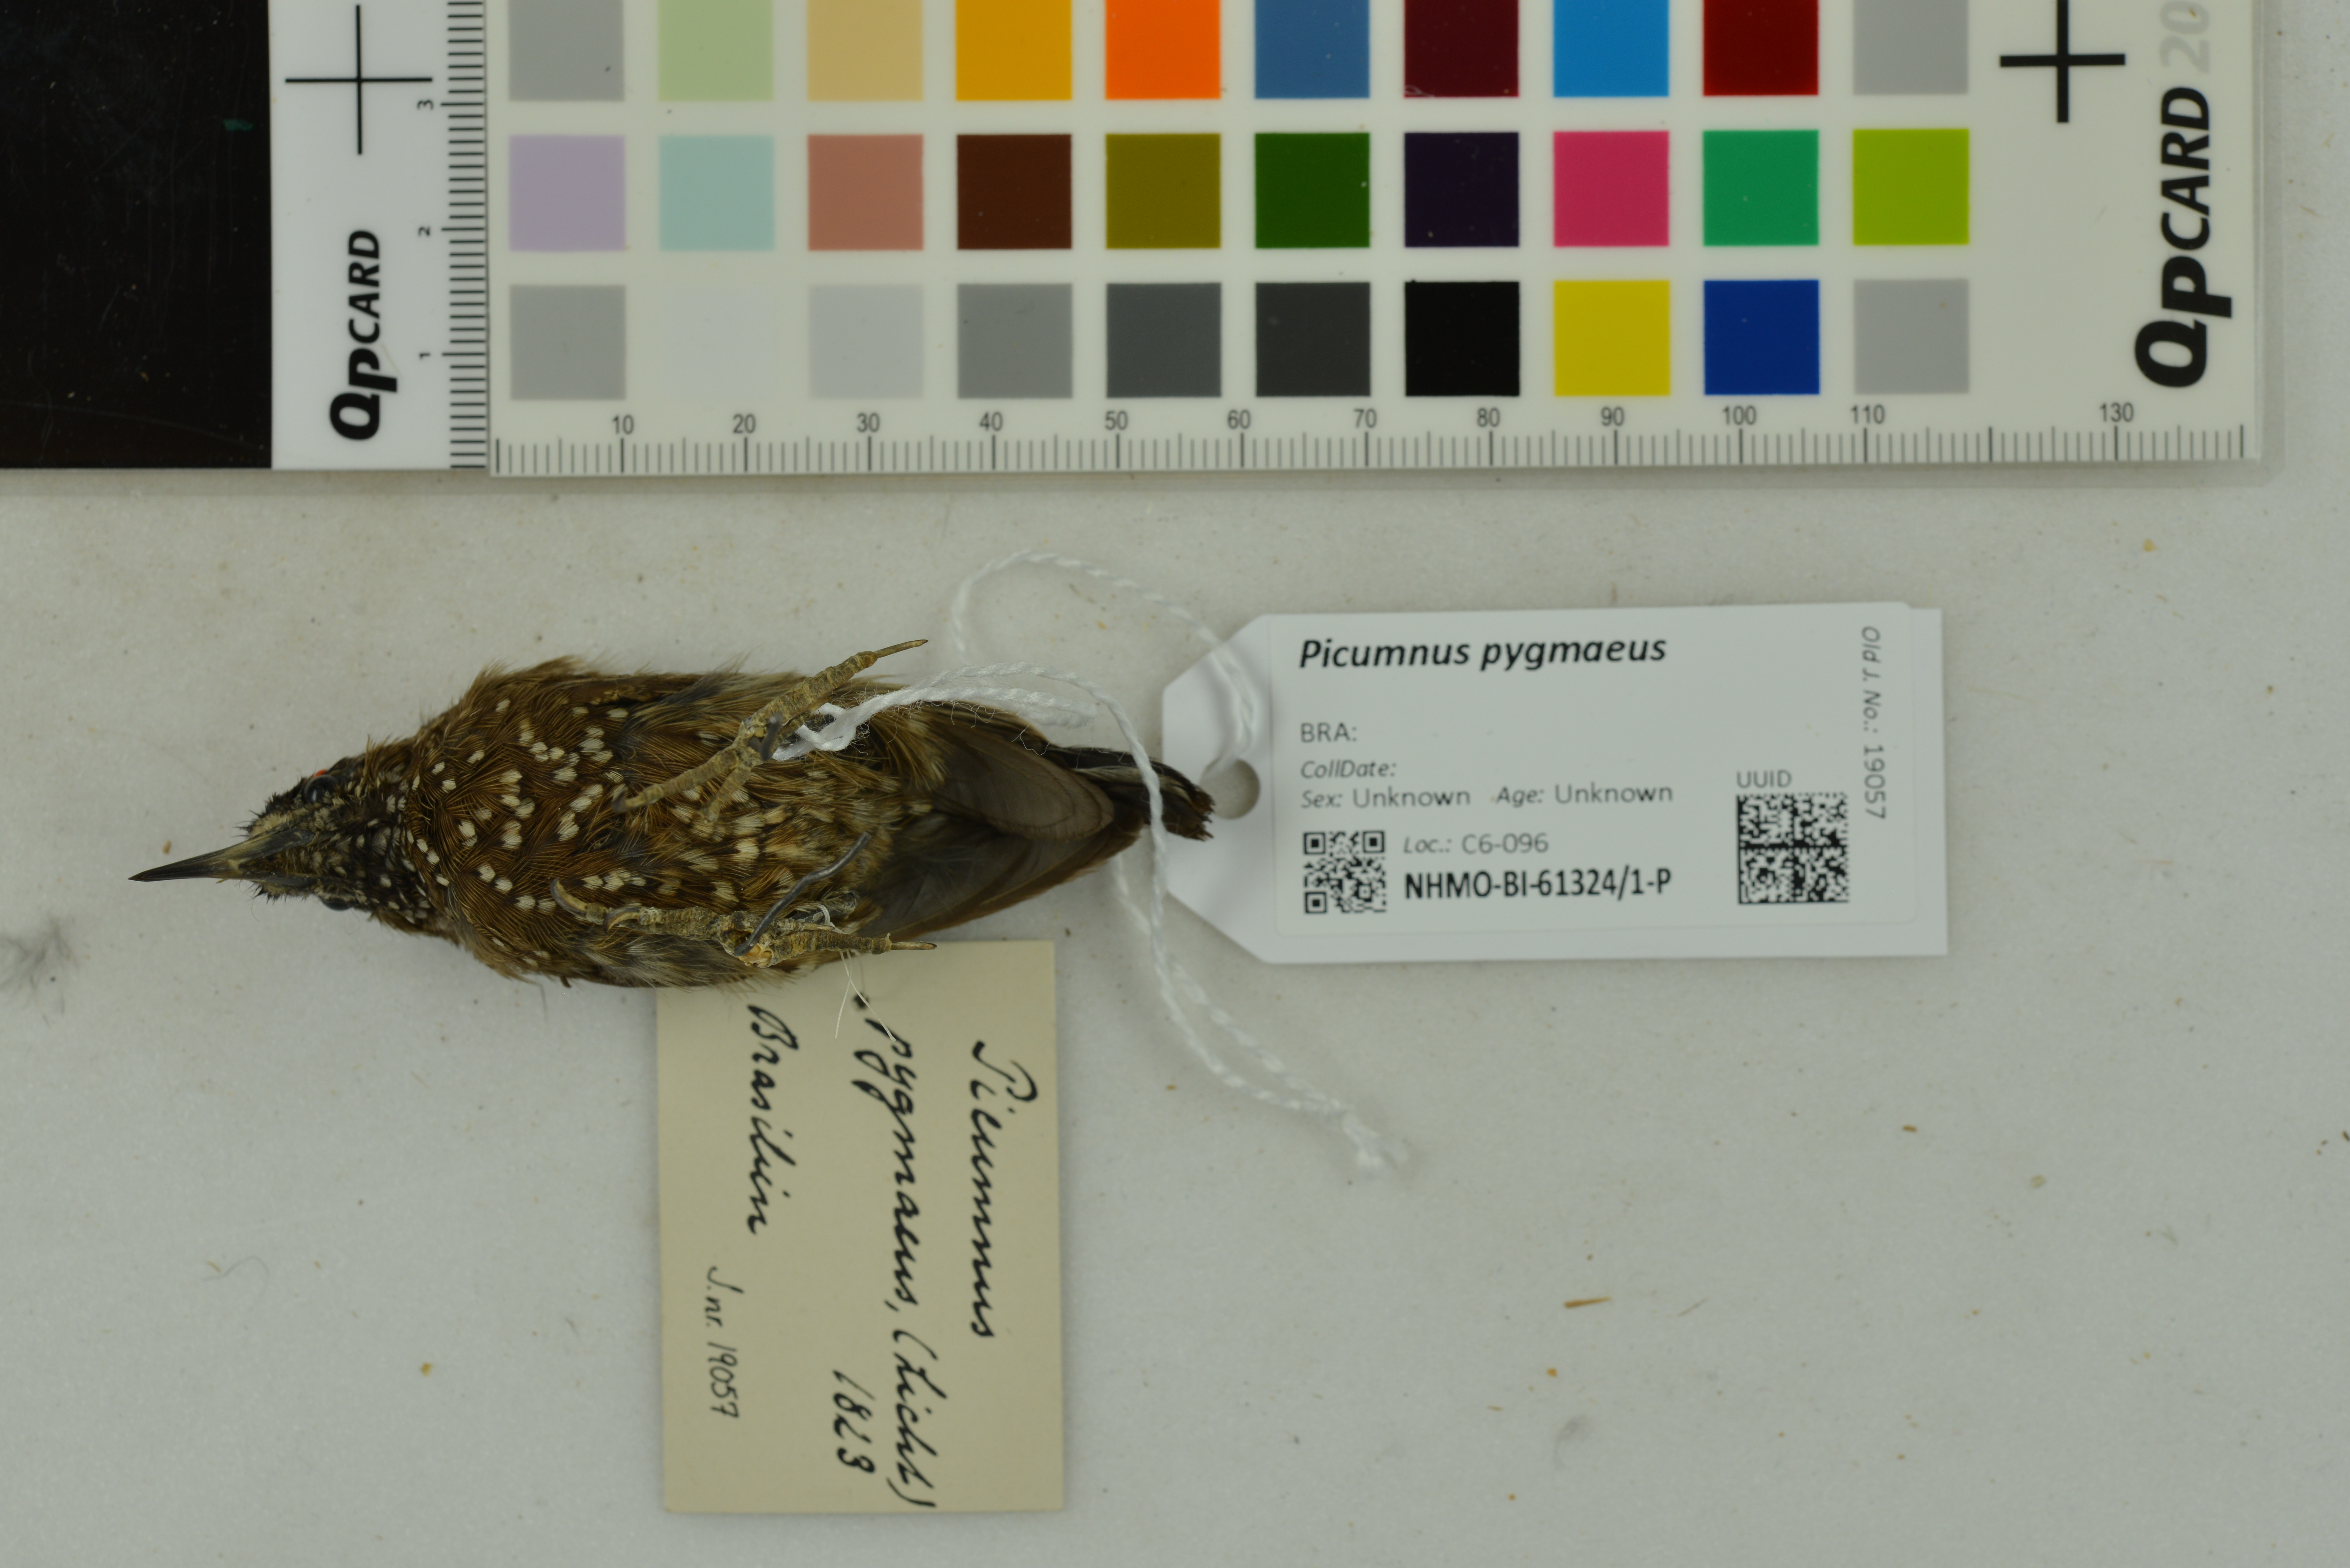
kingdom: Animalia
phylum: Chordata
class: Aves
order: Piciformes
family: Picidae
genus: Picumnus
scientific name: Picumnus pygmaeus
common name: Spotted piculet
